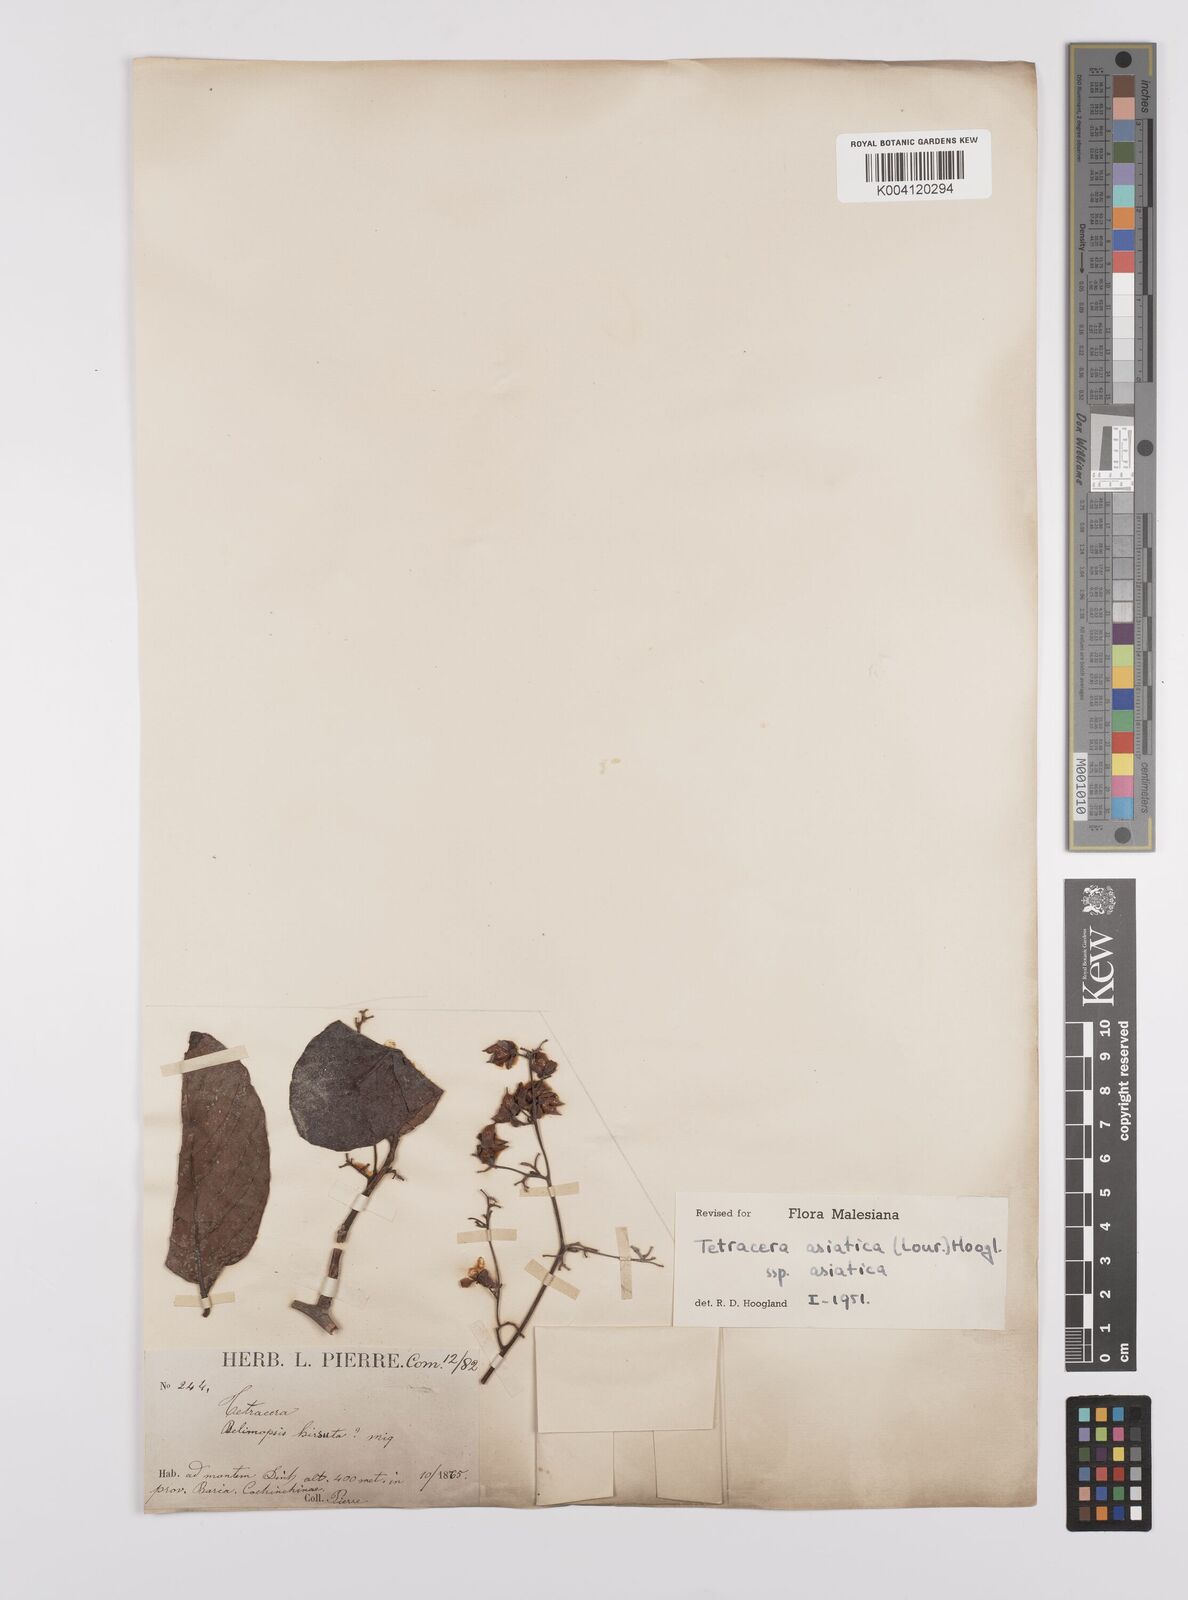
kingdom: Plantae
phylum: Tracheophyta
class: Magnoliopsida
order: Dilleniales
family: Dilleniaceae
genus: Tetracera
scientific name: Tetracera sarmentosa
